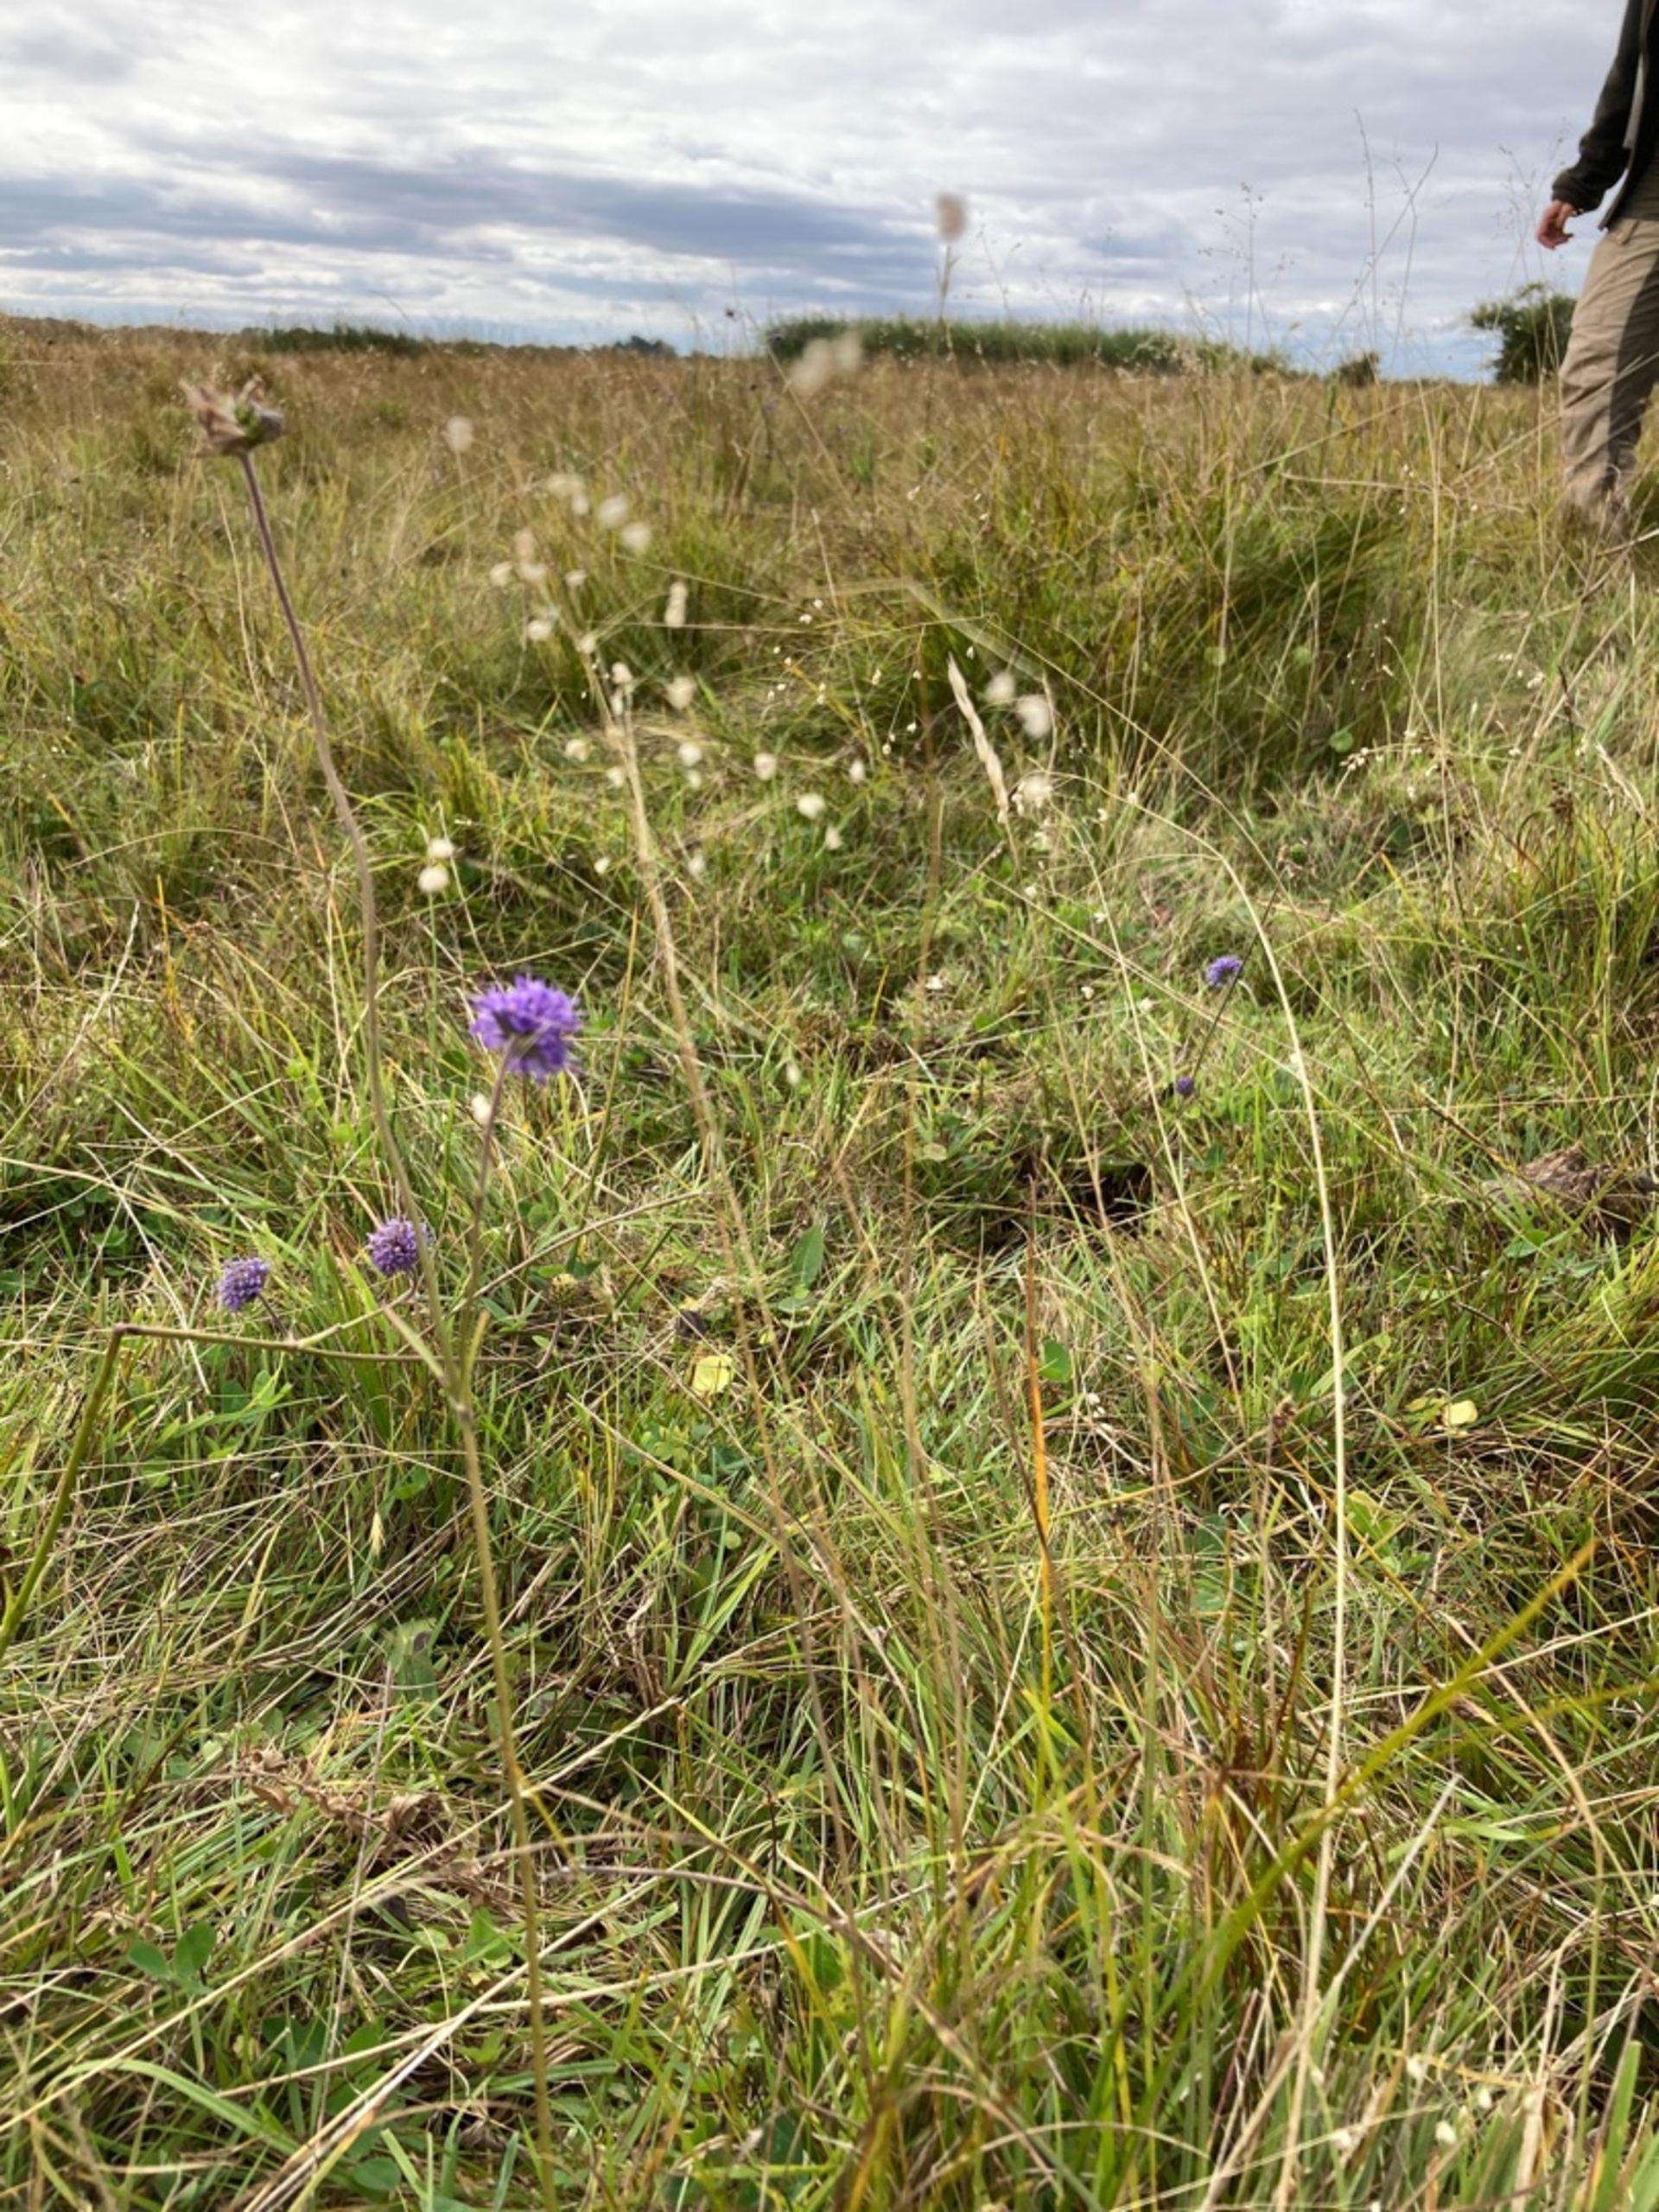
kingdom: Plantae
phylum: Tracheophyta
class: Magnoliopsida
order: Dipsacales
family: Caprifoliaceae
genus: Succisa
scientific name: Succisa pratensis
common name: Djævelsbid
